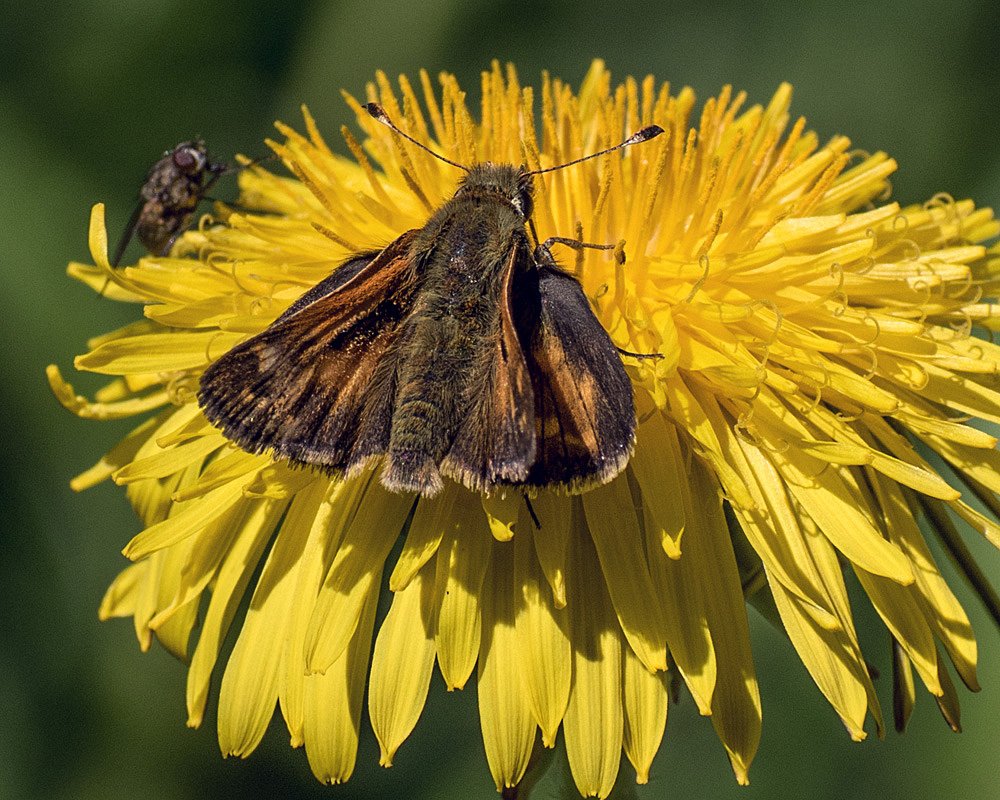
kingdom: Animalia
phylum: Arthropoda
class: Insecta
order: Lepidoptera
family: Hesperiidae
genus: Hesperia
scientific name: Hesperia comma
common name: Common Branded Skipper
